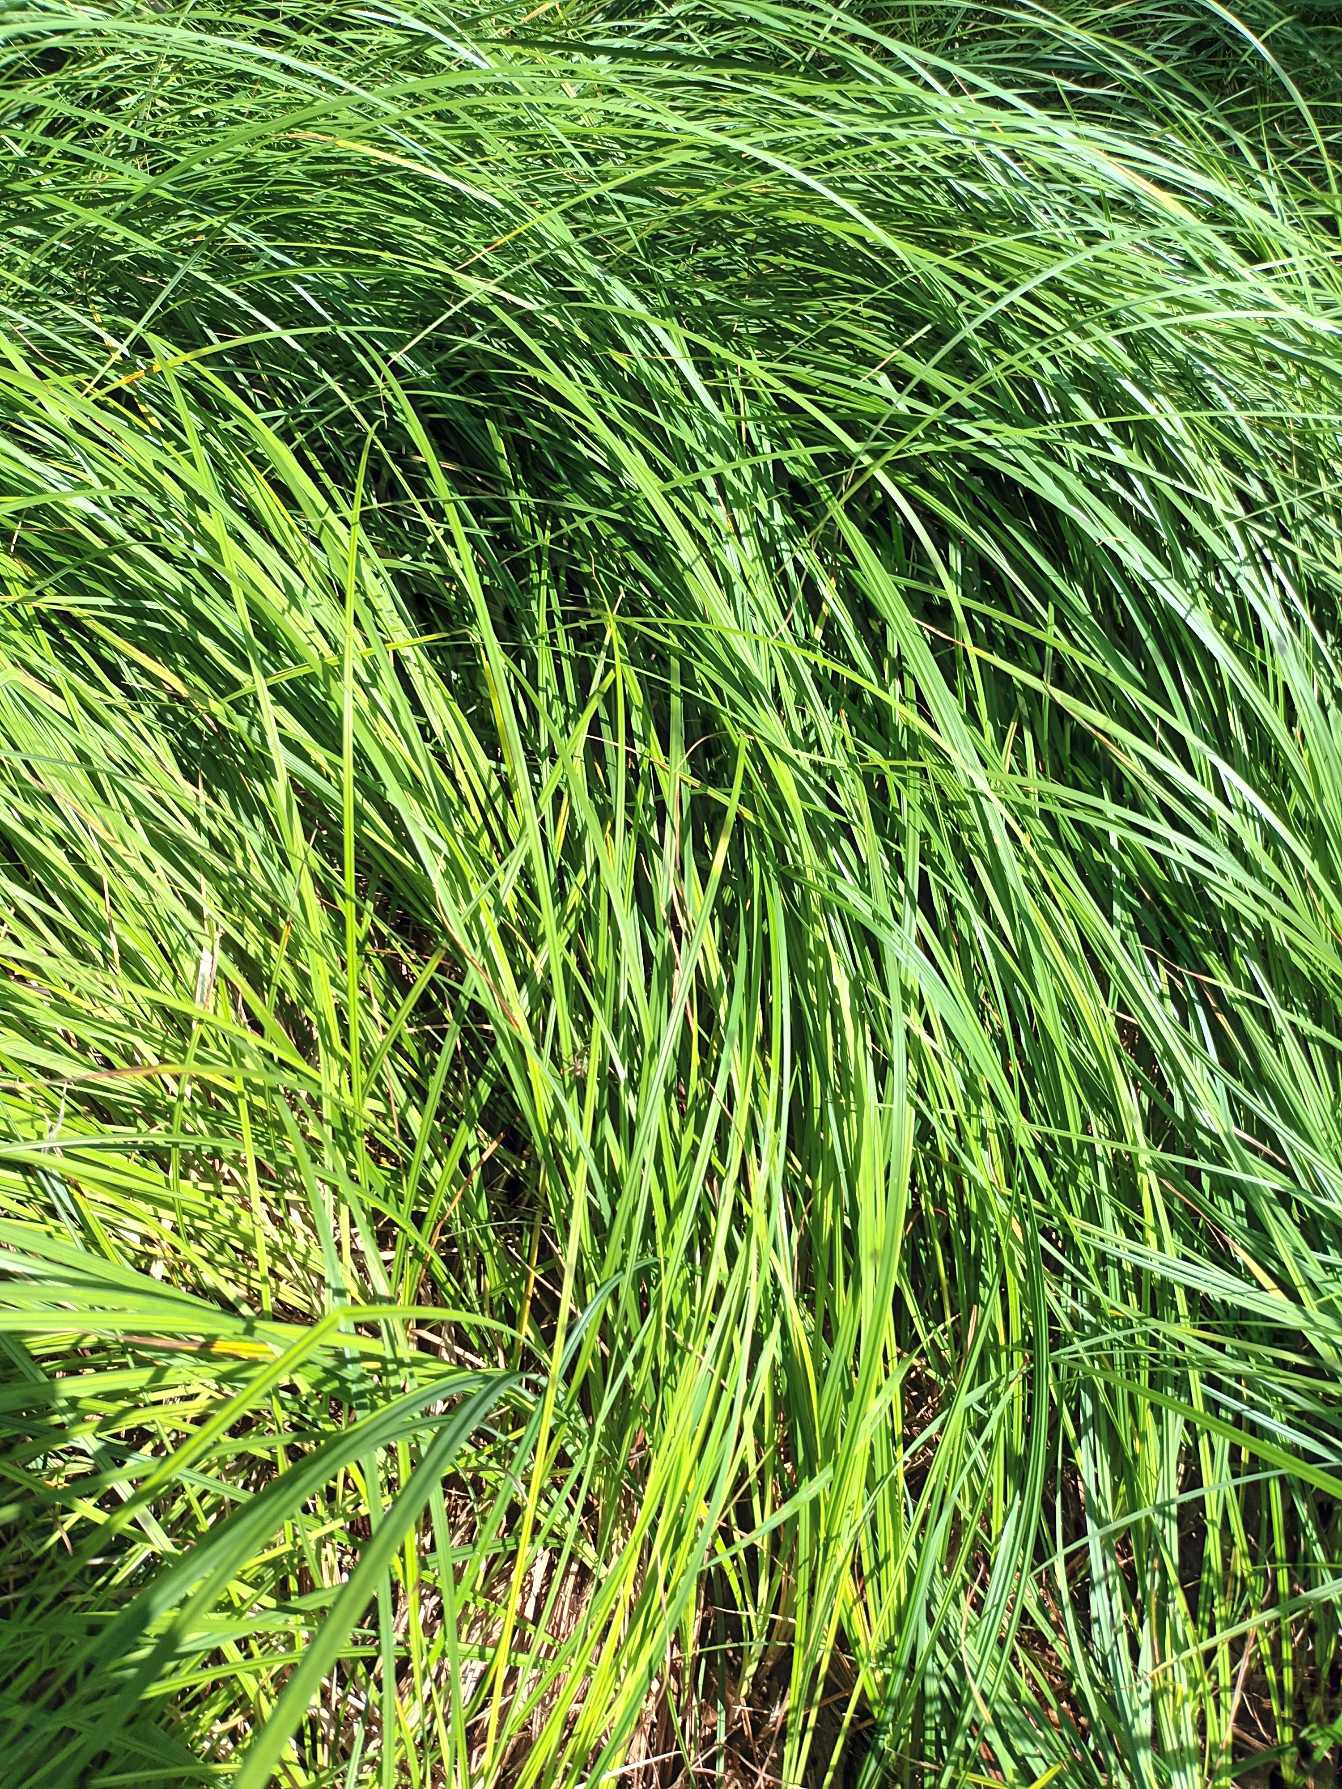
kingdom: Plantae
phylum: Tracheophyta
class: Liliopsida
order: Poales
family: Cyperaceae
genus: Carex
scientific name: Carex acutiformis
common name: Kær-star
